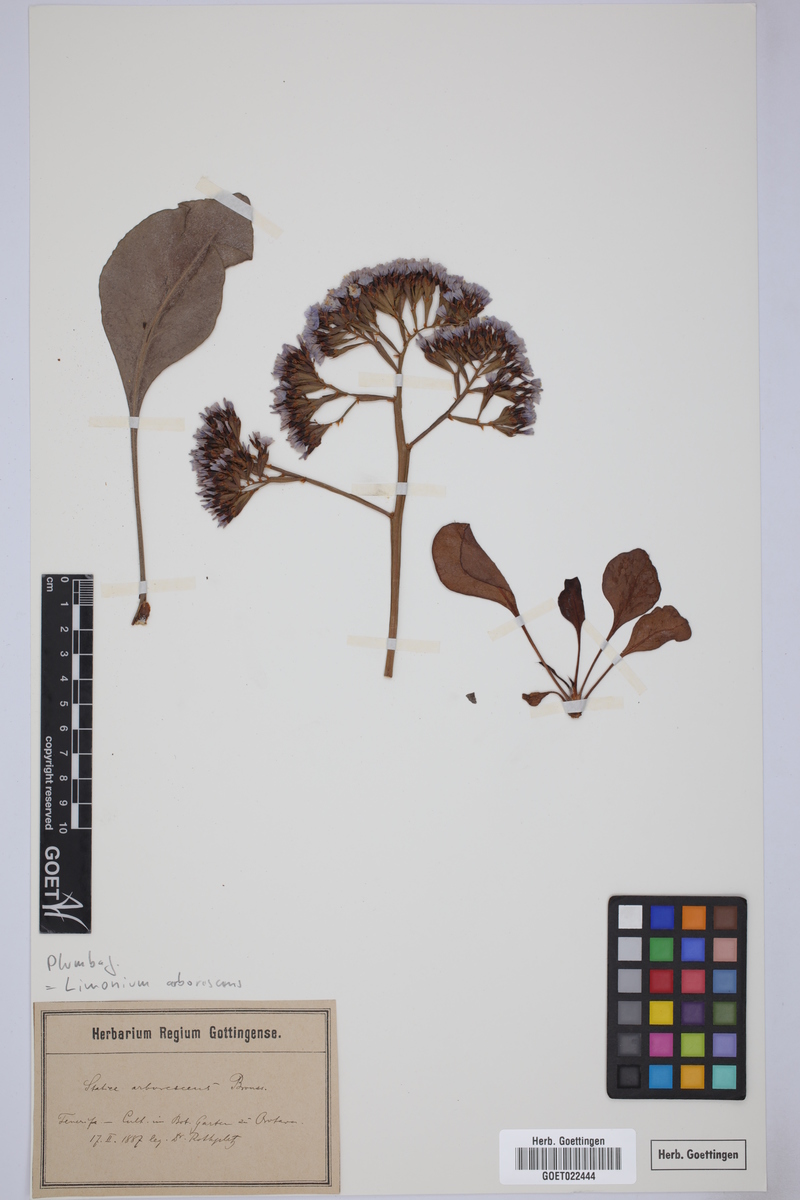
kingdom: Plantae
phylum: Tracheophyta
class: Magnoliopsida
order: Caryophyllales
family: Plumbaginaceae
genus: Limonium
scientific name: Limonium arboreum
